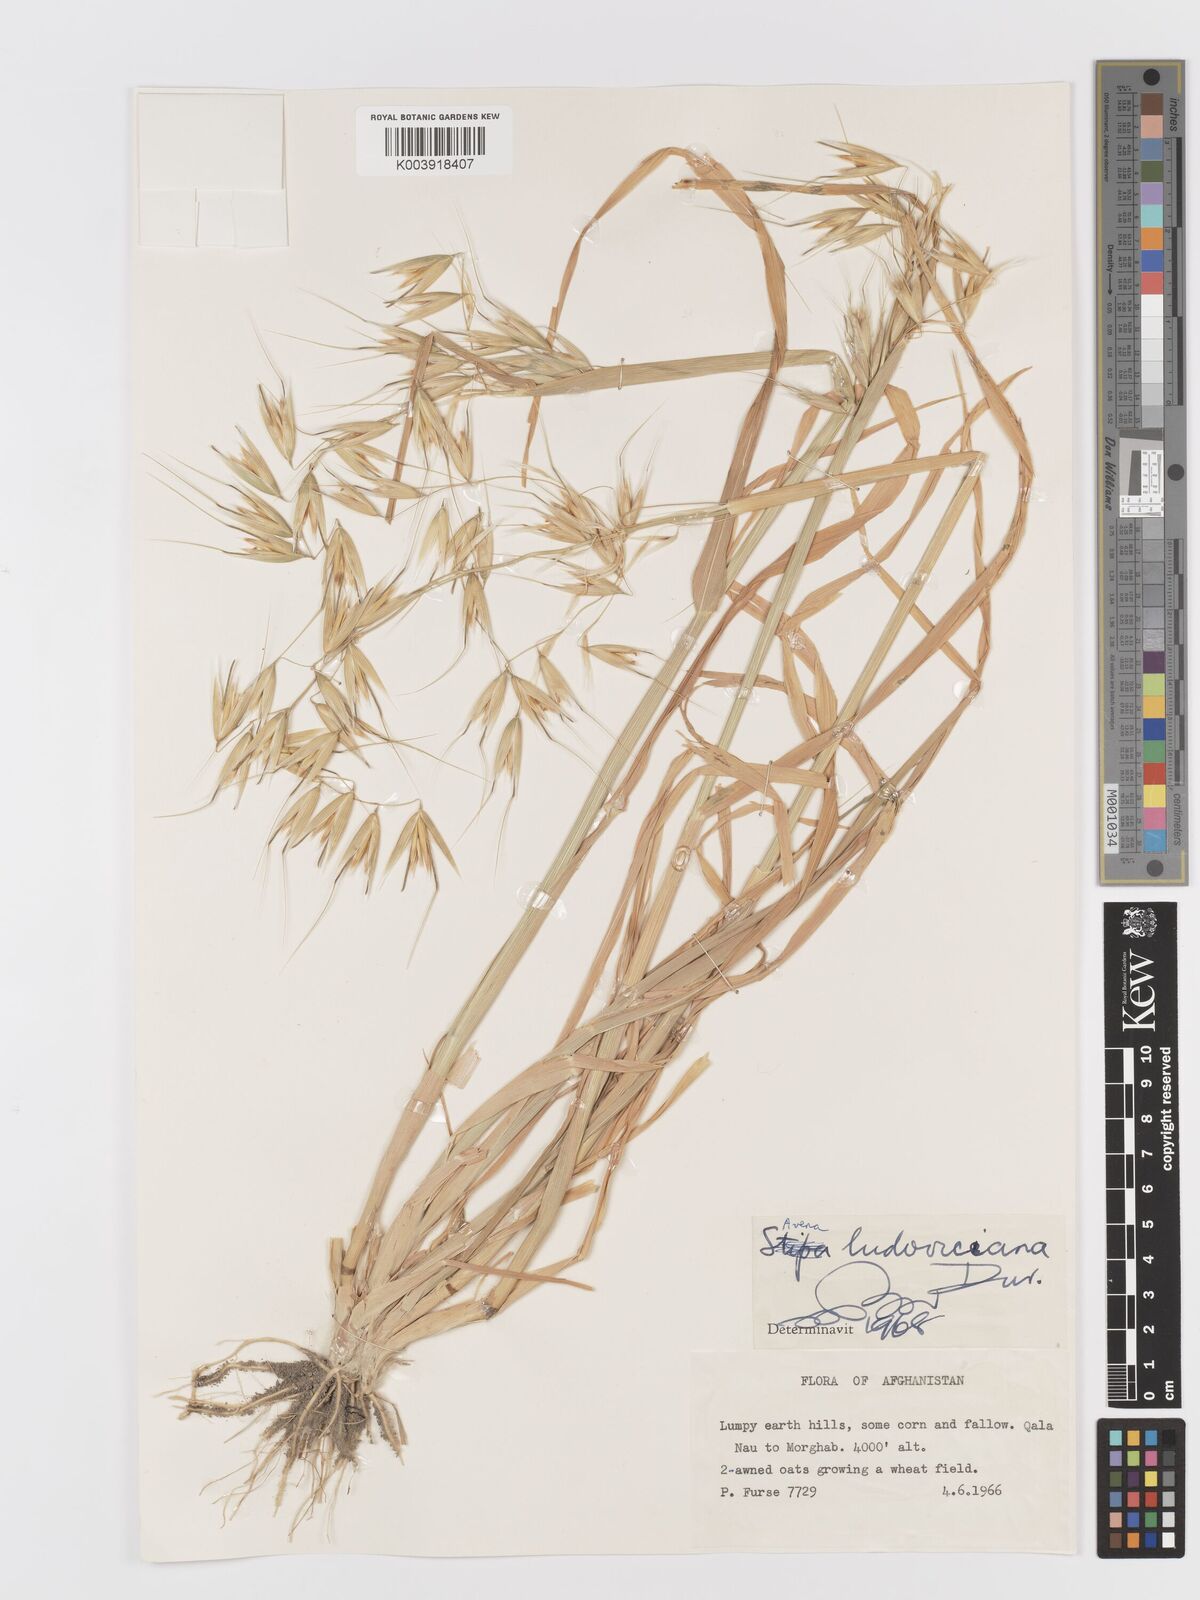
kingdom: Plantae
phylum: Tracheophyta
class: Liliopsida
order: Poales
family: Poaceae
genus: Avena
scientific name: Avena sterilis
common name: Animated oat
